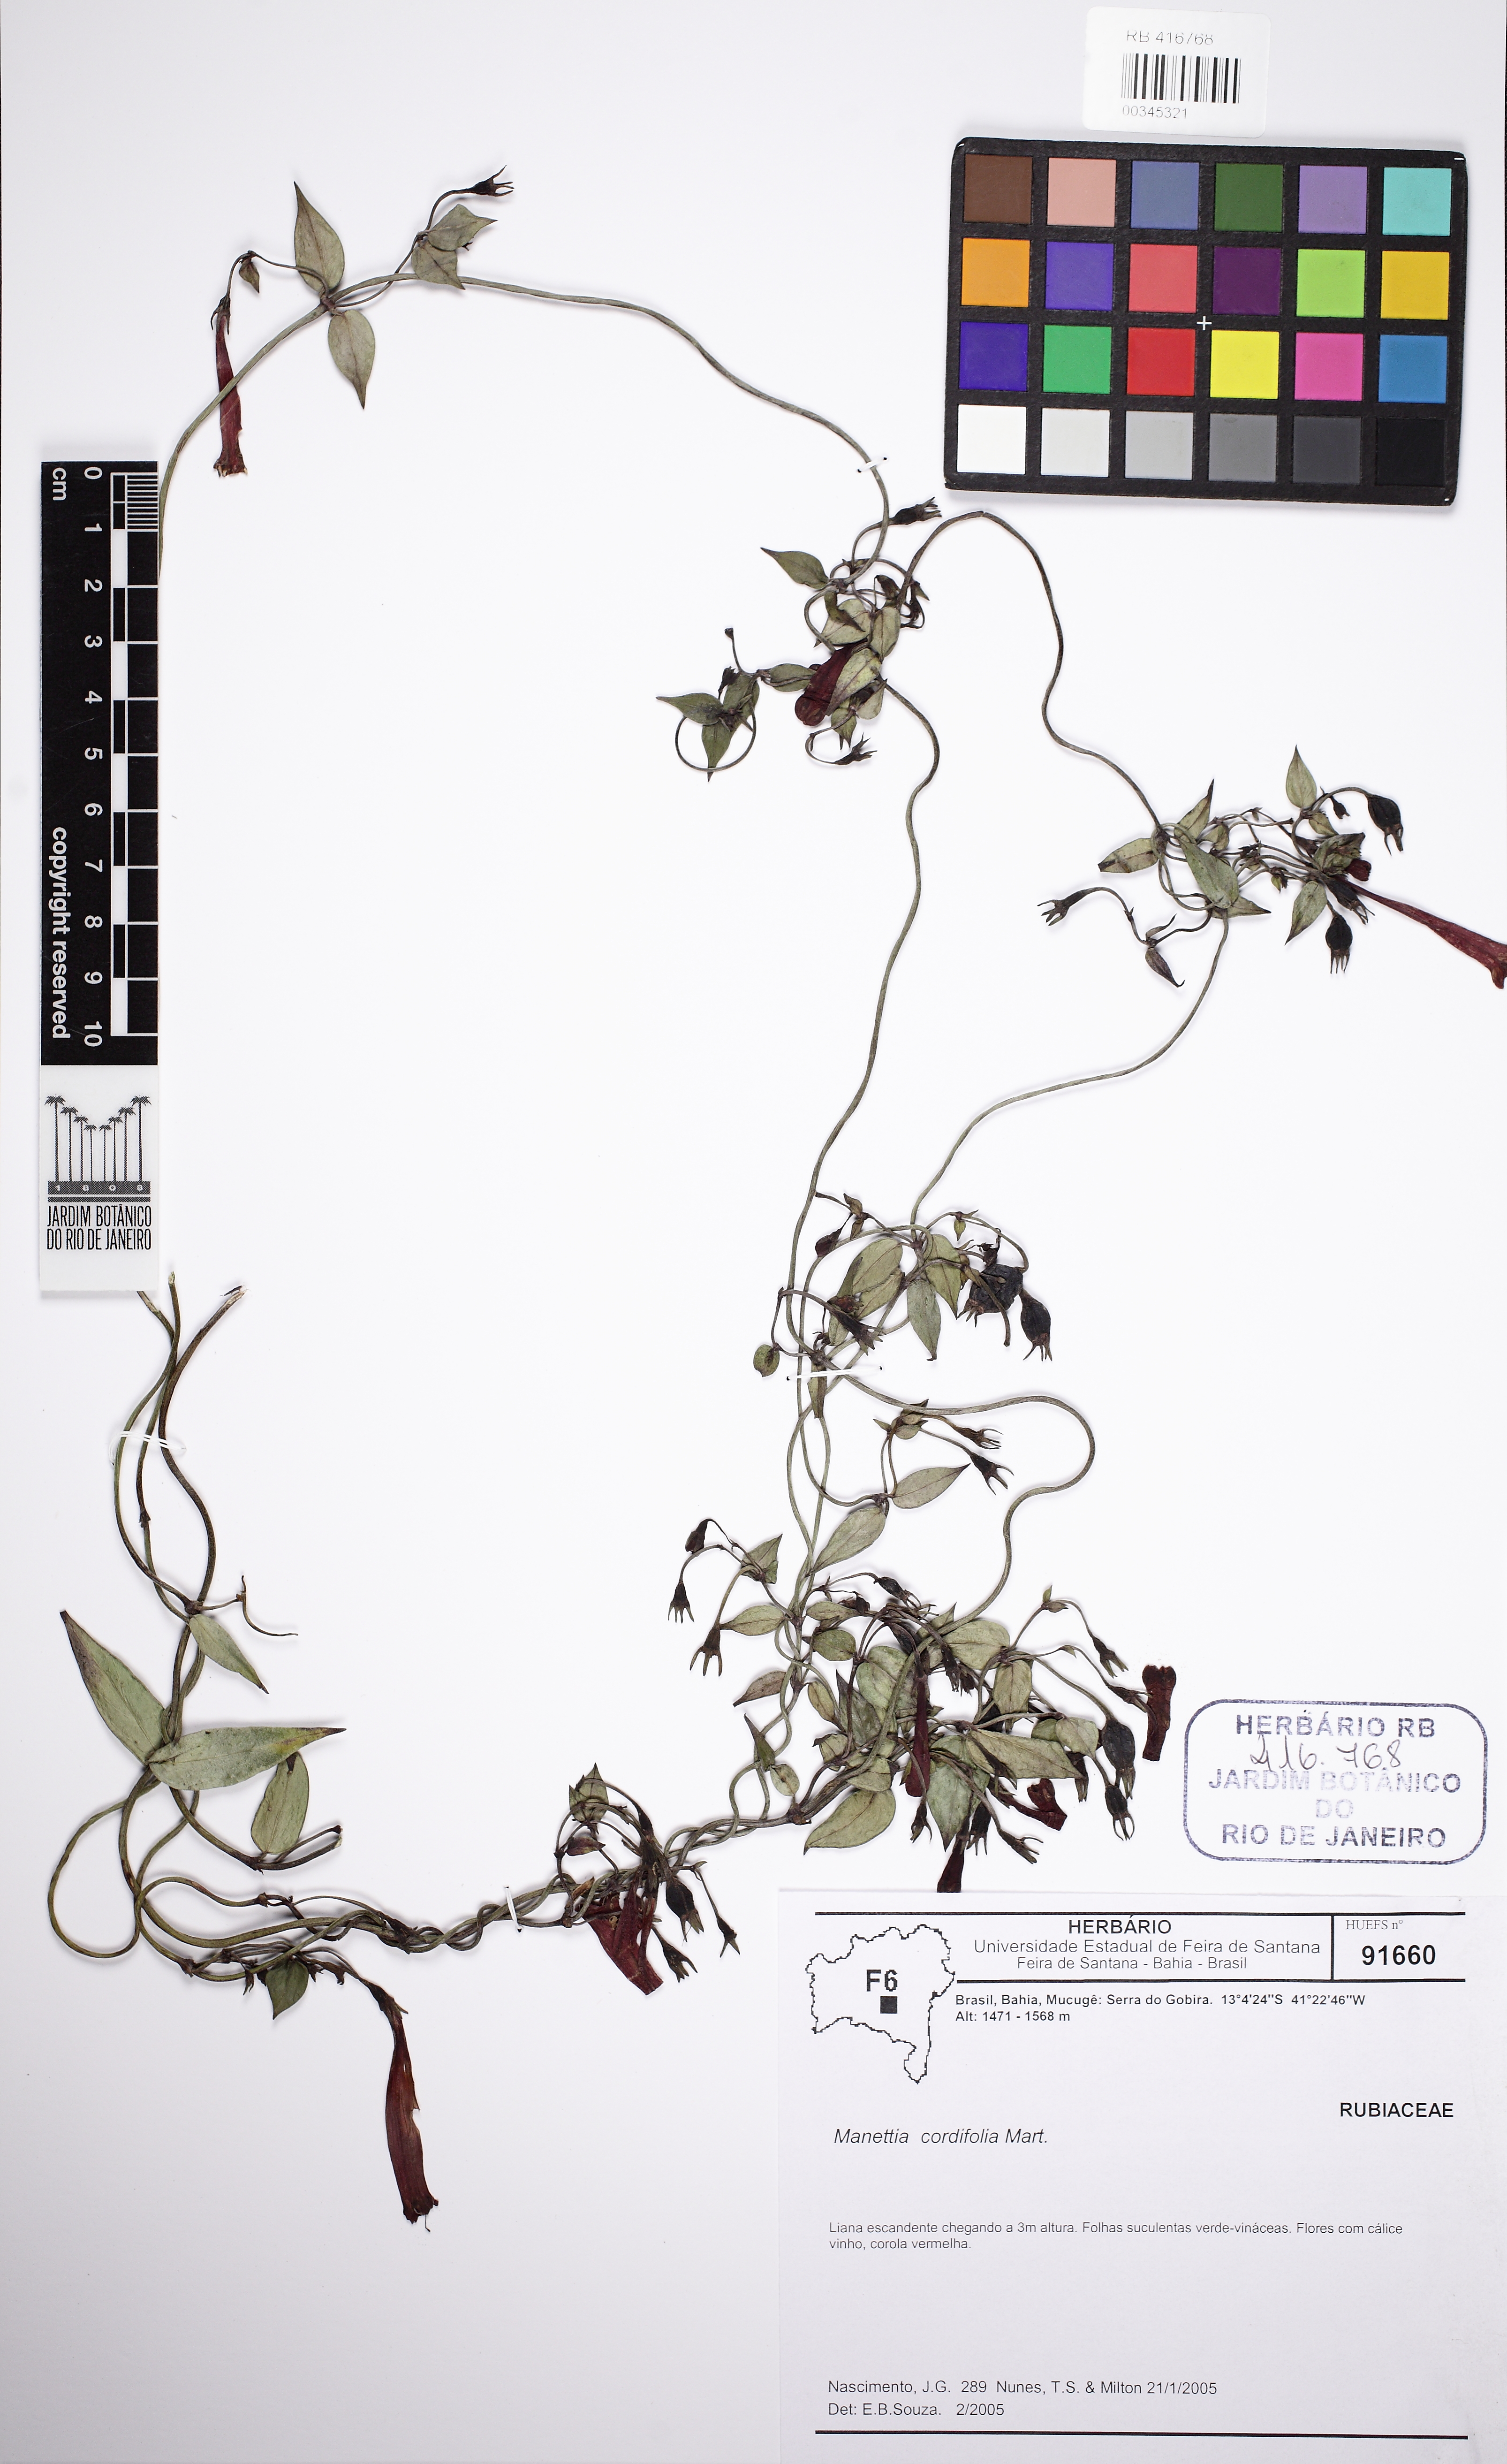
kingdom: Plantae
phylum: Tracheophyta
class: Magnoliopsida
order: Gentianales
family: Rubiaceae
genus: Manettia
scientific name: Manettia cordifolia
